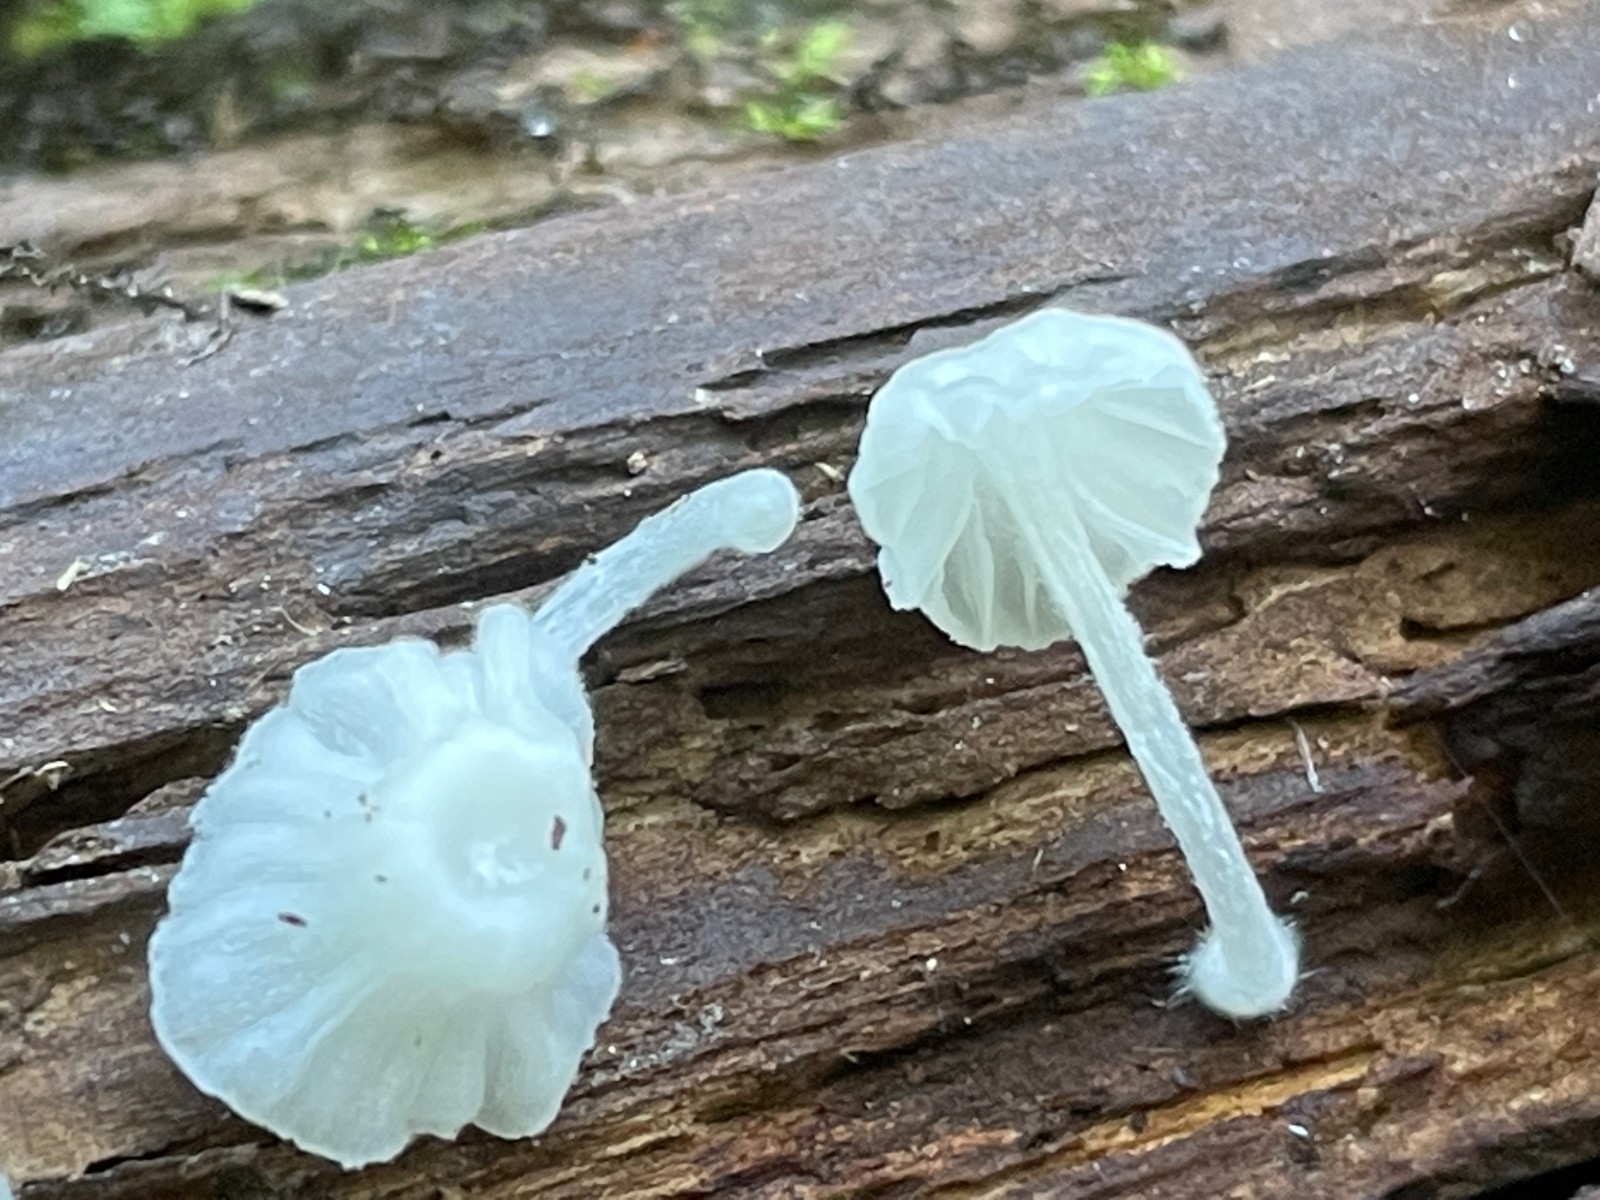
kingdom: Fungi
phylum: Basidiomycota
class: Agaricomycetes
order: Agaricales
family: Tricholomataceae
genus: Delicatula
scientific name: Delicatula integrella
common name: slørhuesvamp
